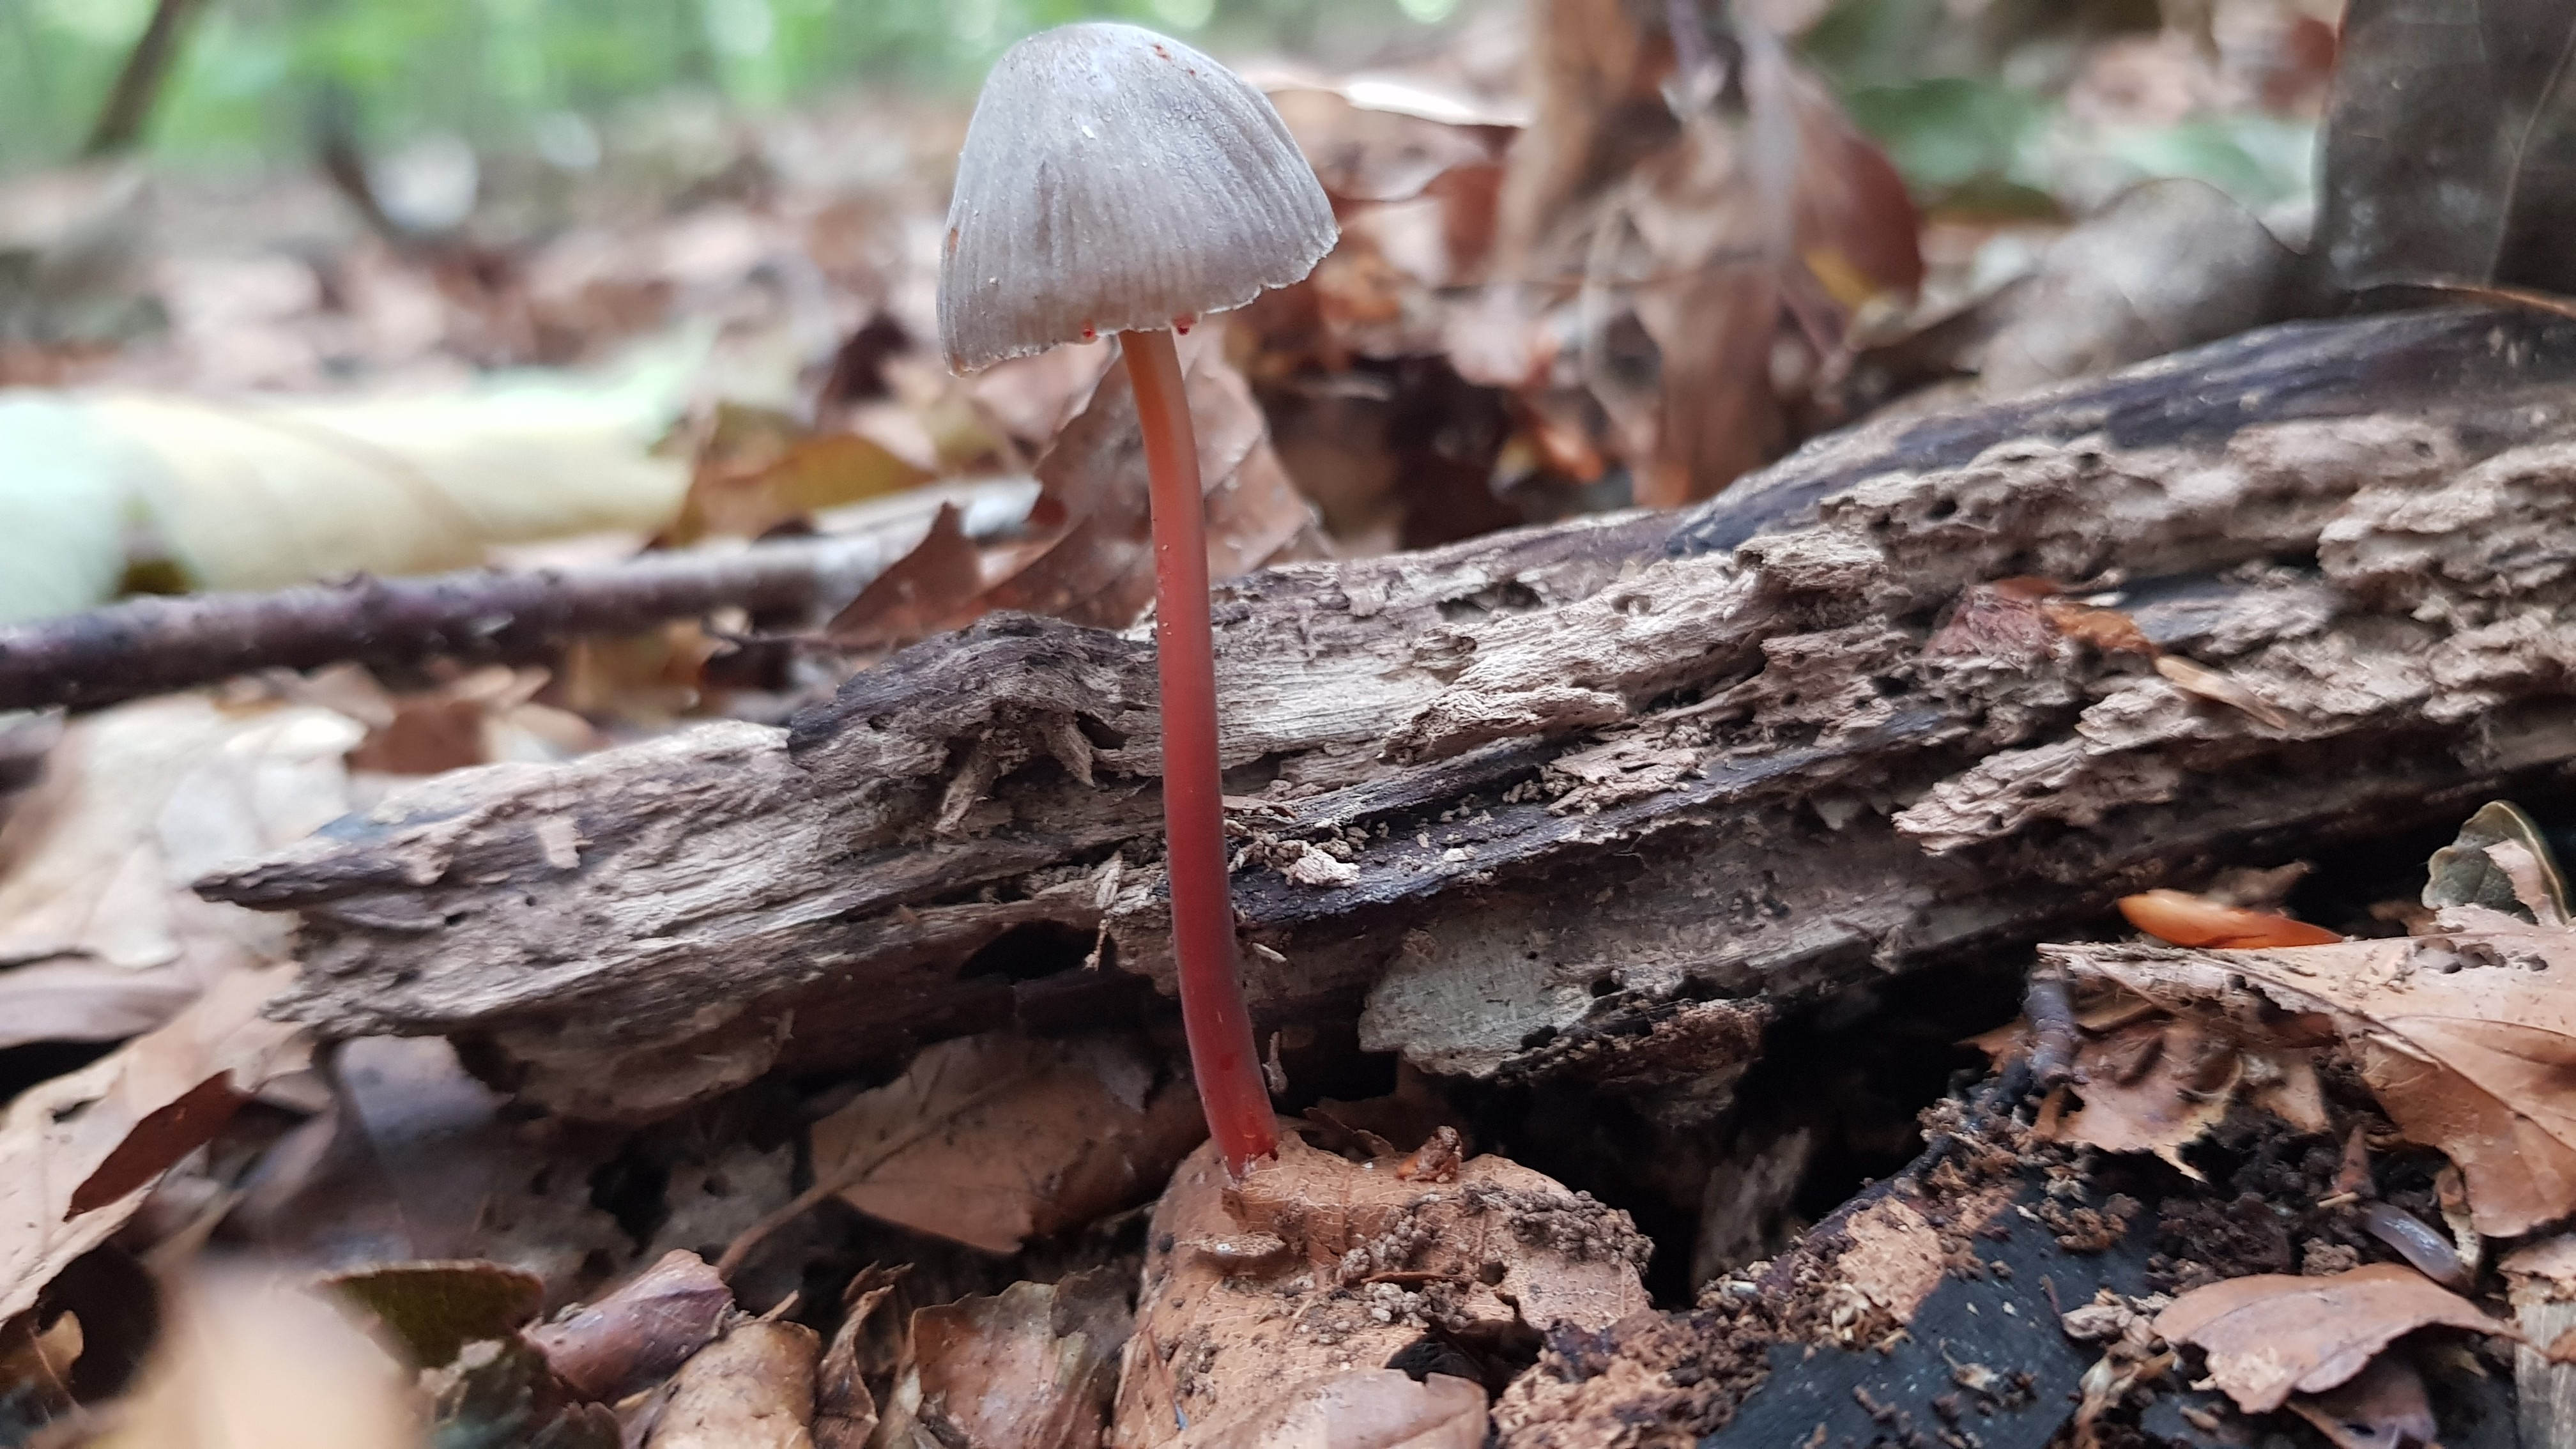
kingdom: Fungi
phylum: Basidiomycota
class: Agaricomycetes
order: Agaricales
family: Mycenaceae
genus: Mycena
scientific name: Mycena crocata
